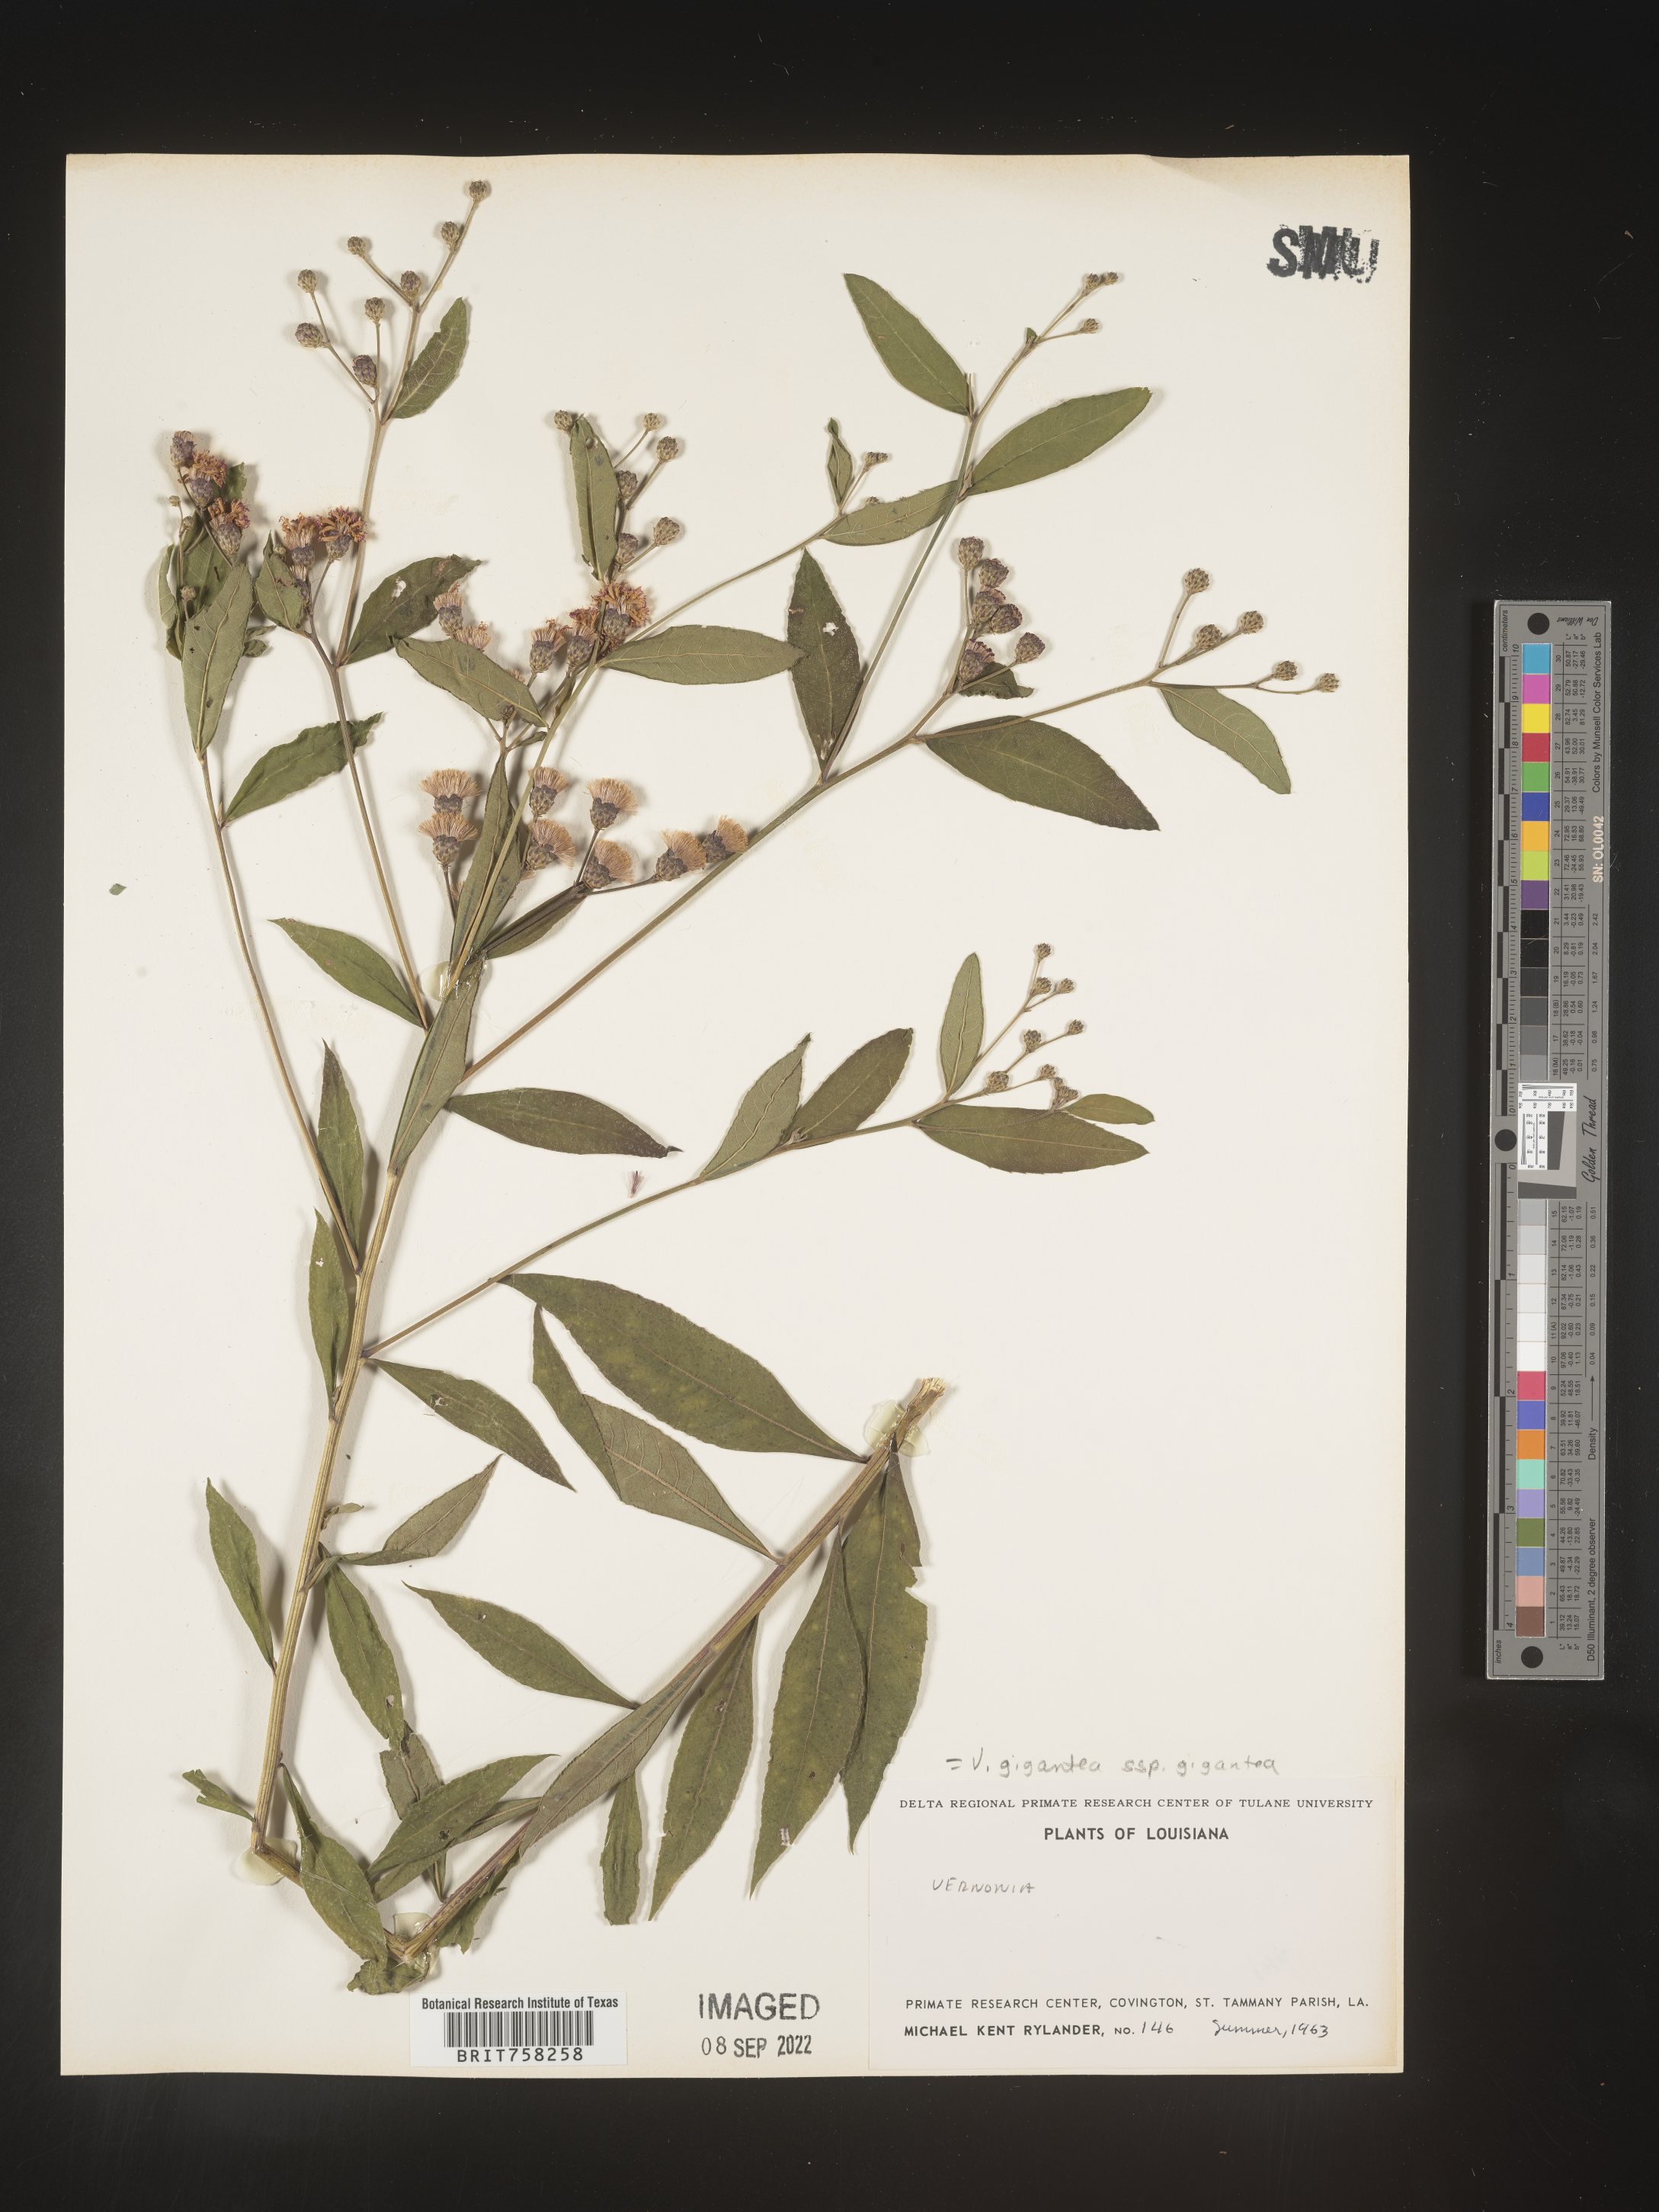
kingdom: Plantae
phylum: Tracheophyta
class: Magnoliopsida
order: Asterales
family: Asteraceae
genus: Vernonia
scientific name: Vernonia gigantea
